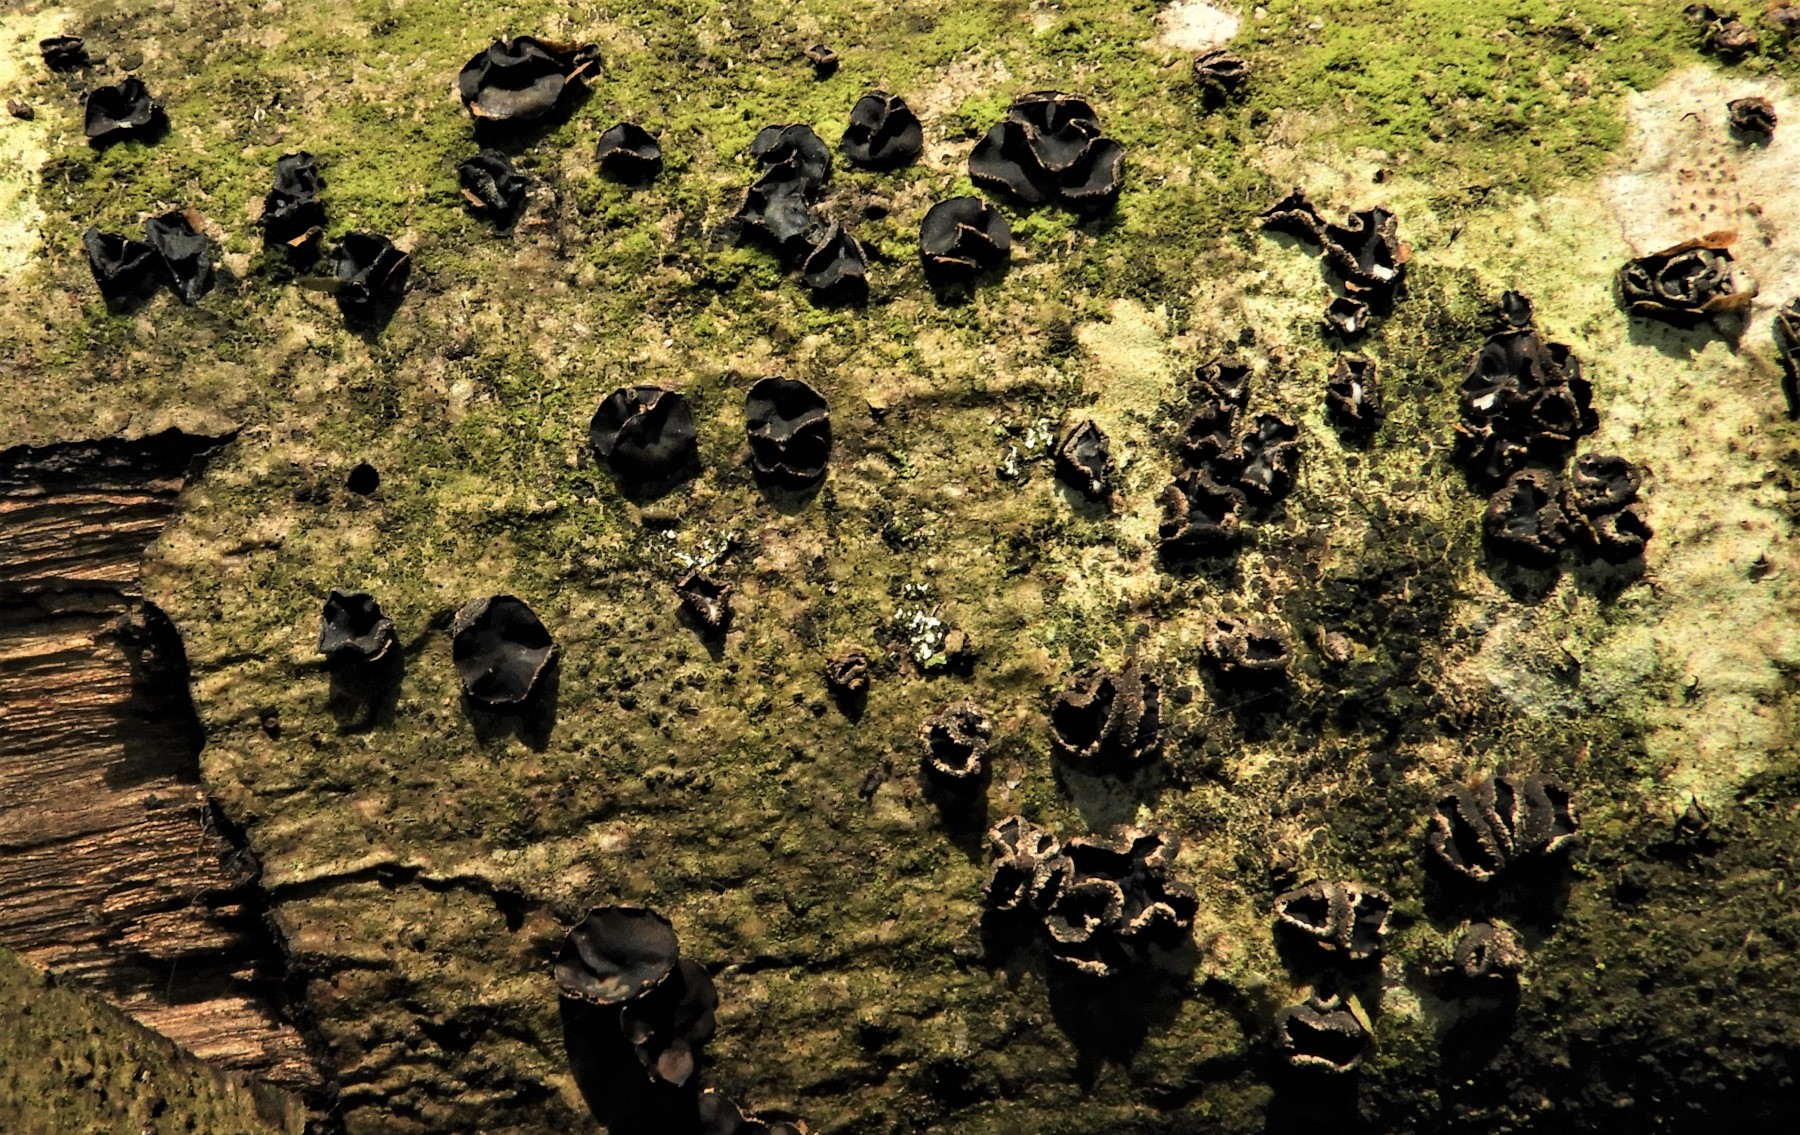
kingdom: Fungi
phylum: Ascomycota
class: Leotiomycetes
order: Helotiales
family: Sclerotiniaceae
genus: Sclerencoelia
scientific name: Sclerencoelia fraxinicola
